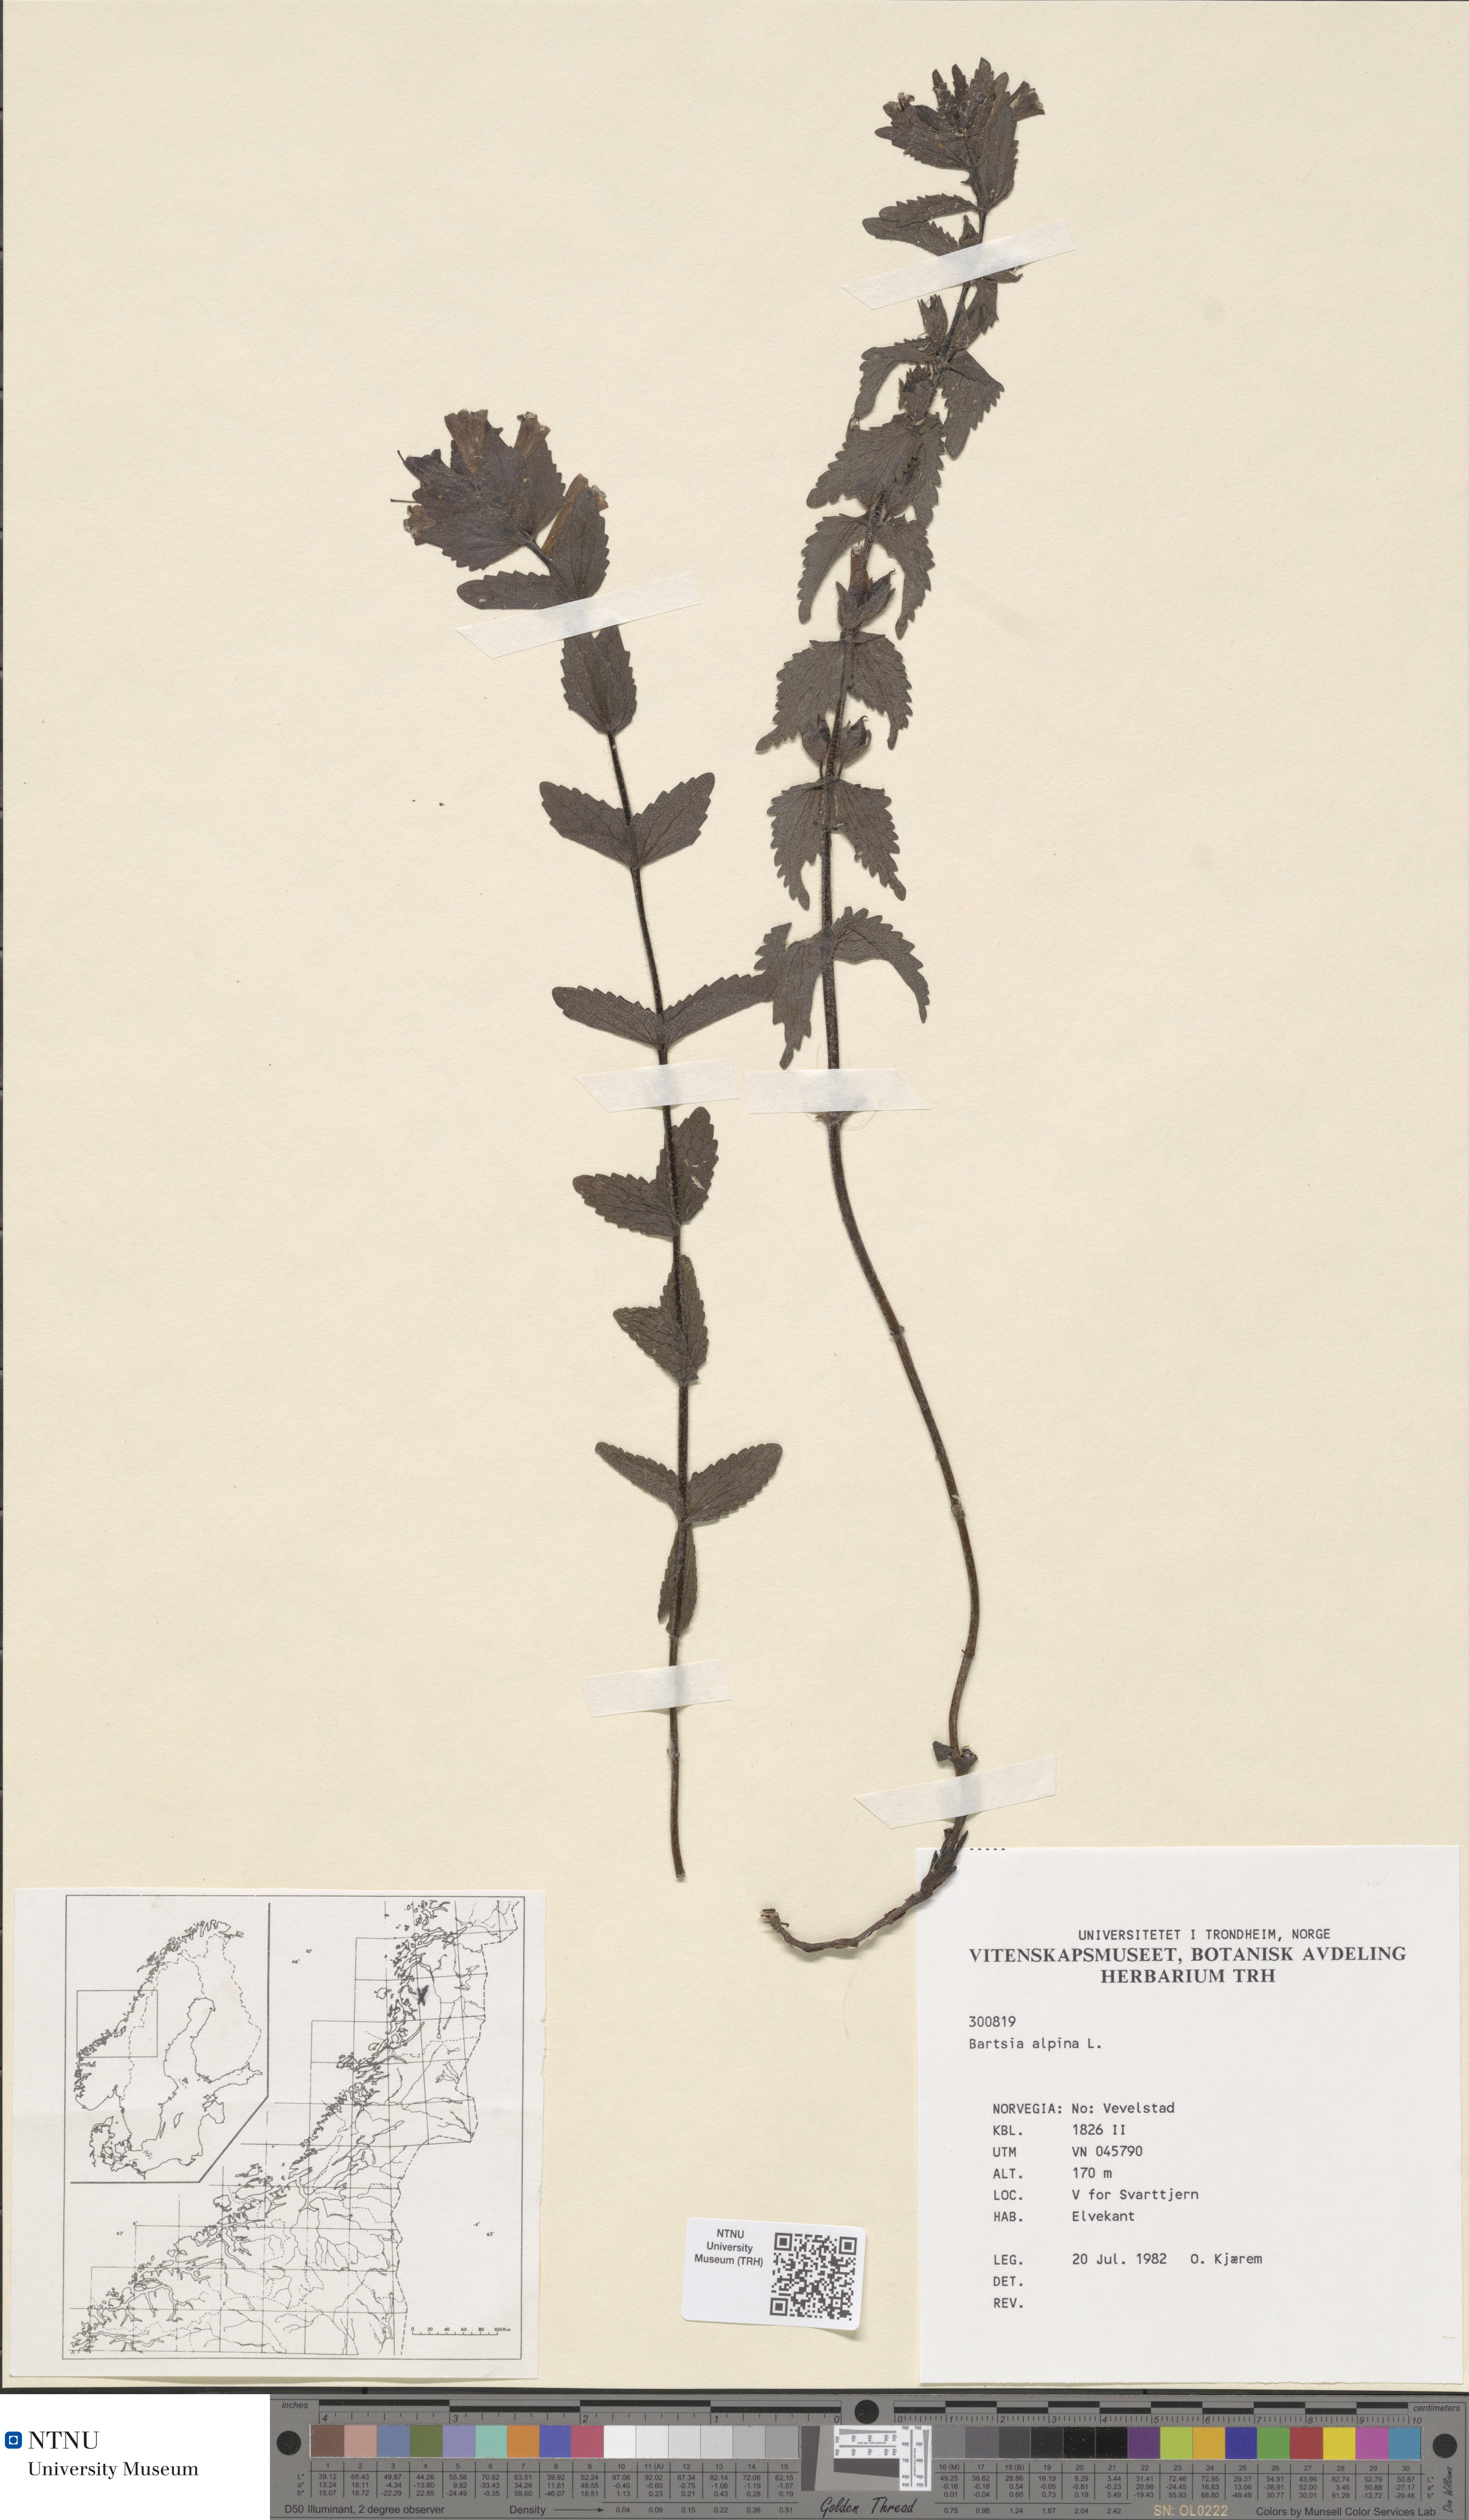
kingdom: Plantae
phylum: Tracheophyta
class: Magnoliopsida
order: Lamiales
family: Orobanchaceae
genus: Bartsia
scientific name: Bartsia alpina
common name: Alpine bartsia
